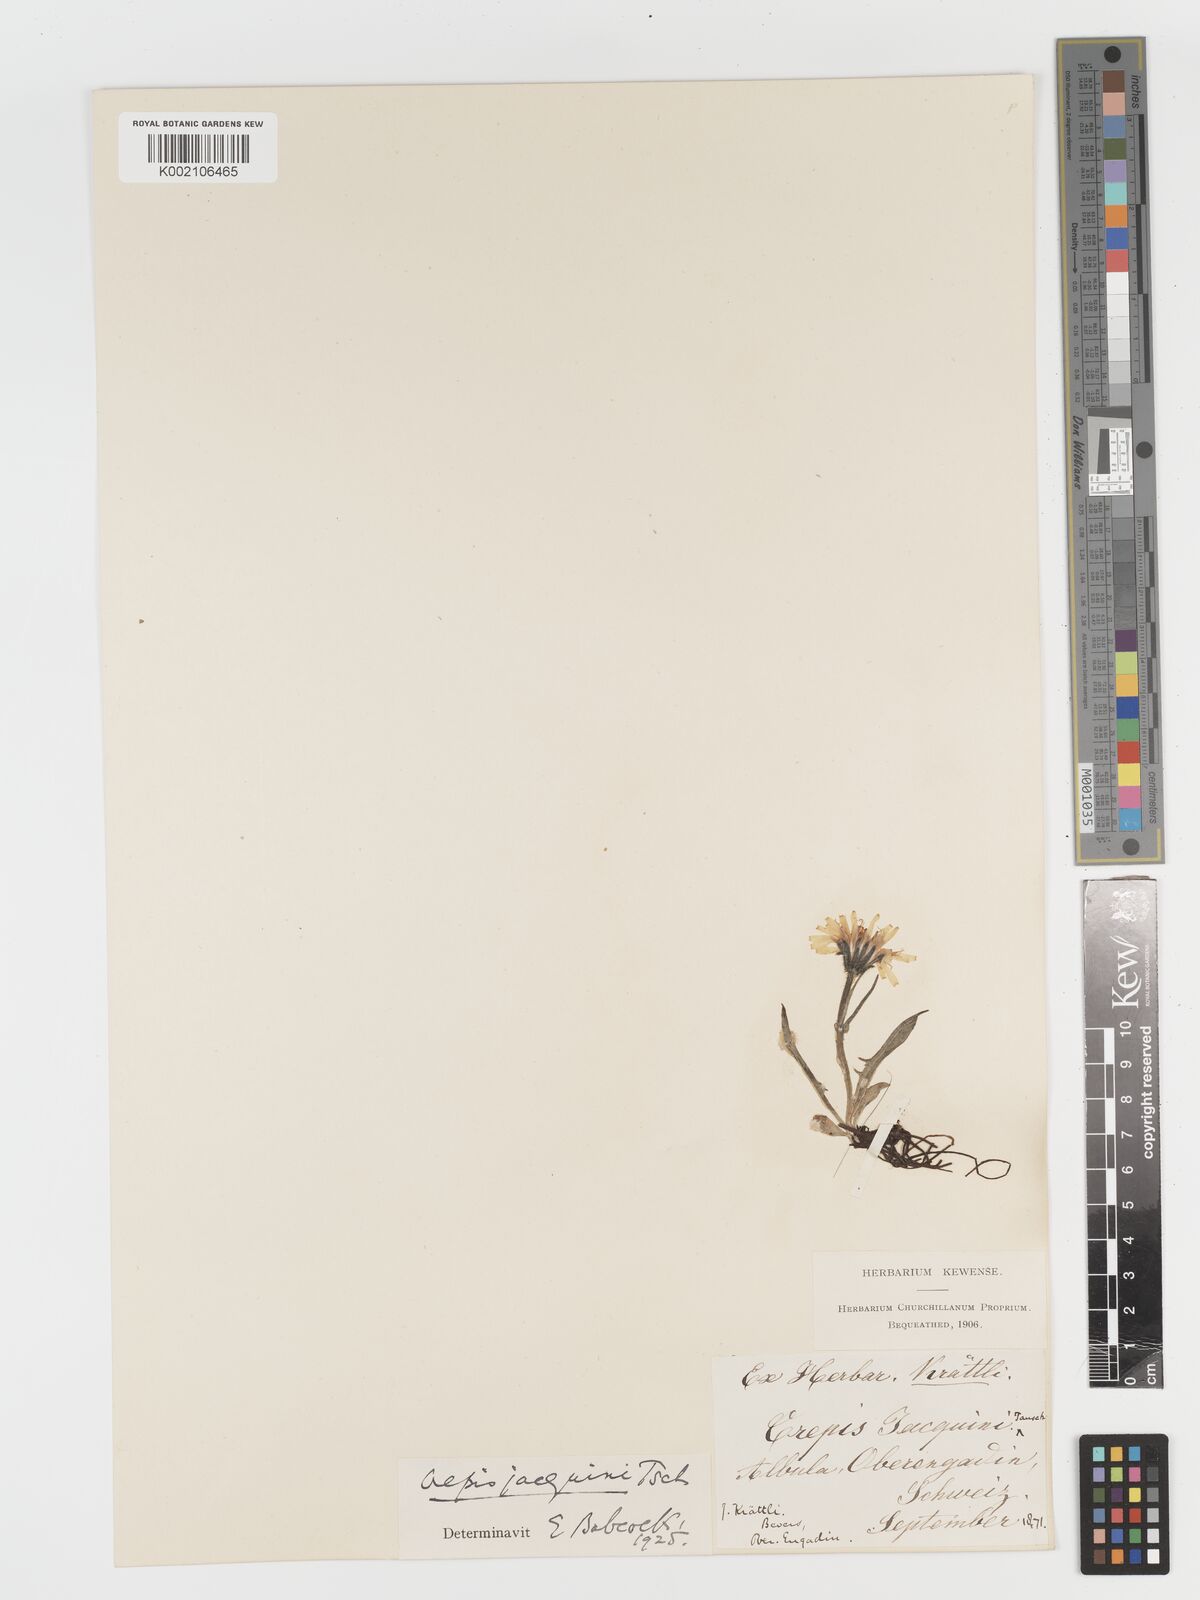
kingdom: Plantae
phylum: Tracheophyta
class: Magnoliopsida
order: Asterales
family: Asteraceae
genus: Crepis
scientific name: Crepis jacquinii
